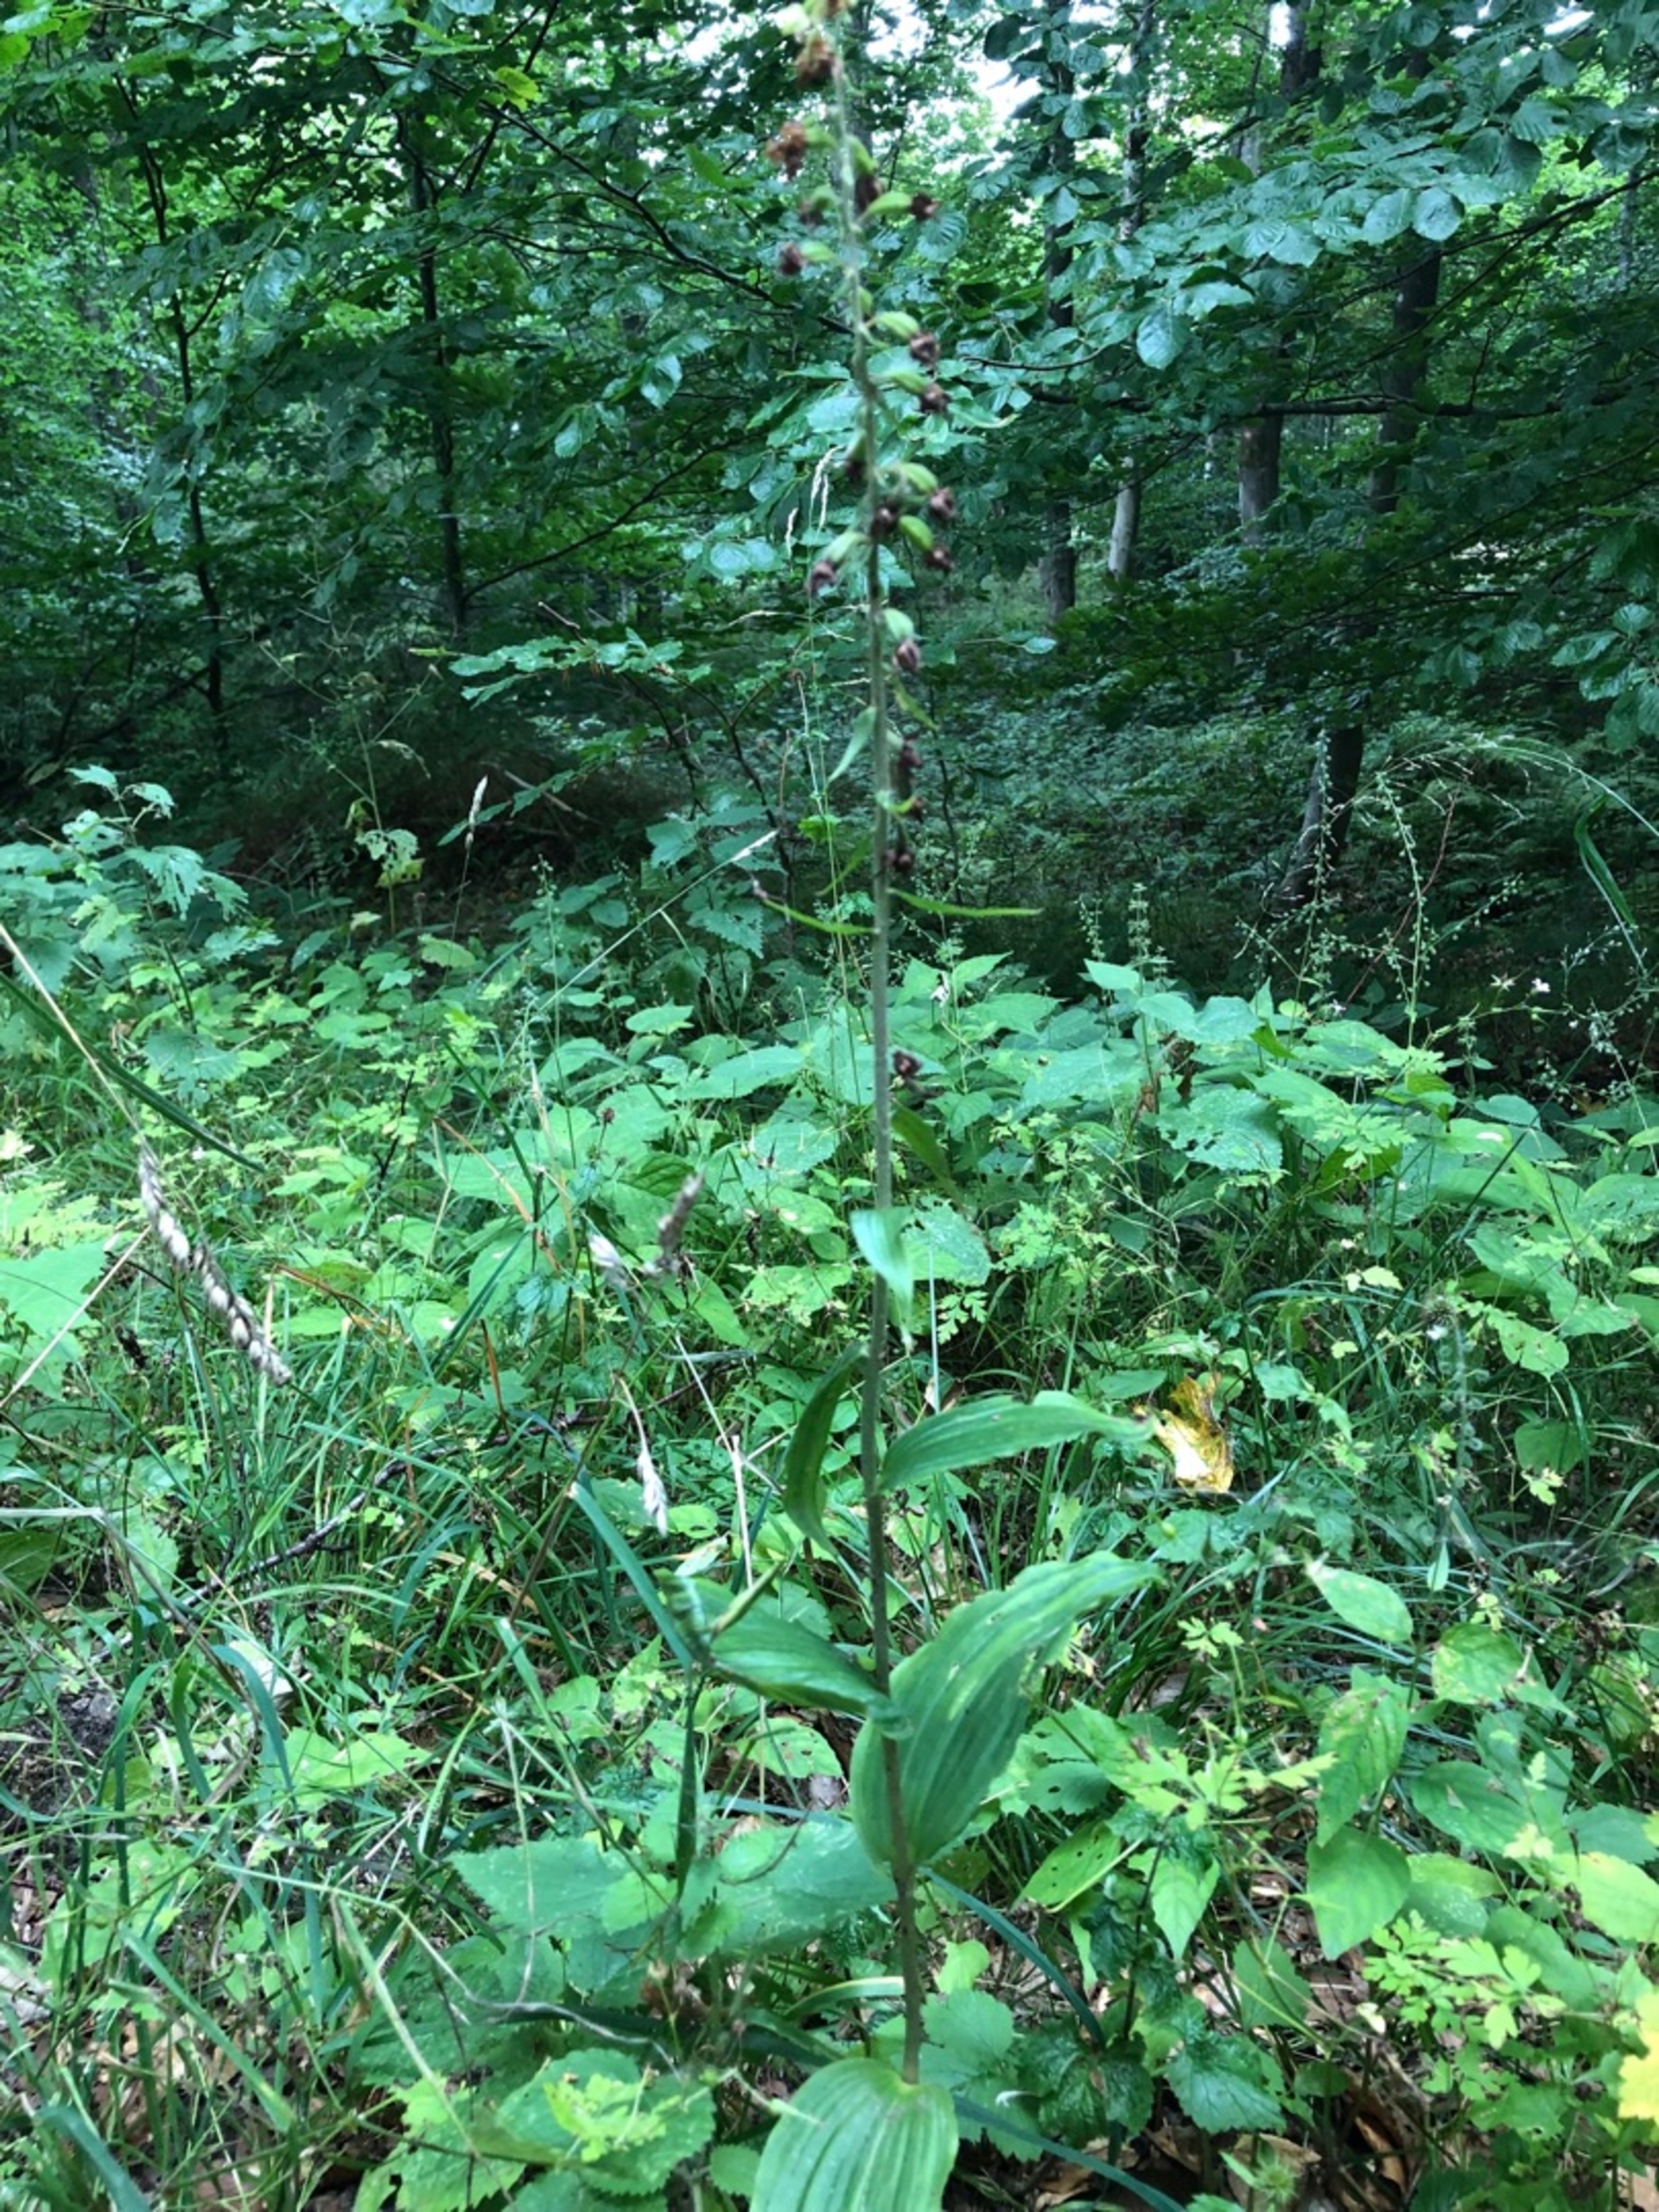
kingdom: Plantae
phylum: Tracheophyta
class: Liliopsida
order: Asparagales
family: Orchidaceae
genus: Epipactis
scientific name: Epipactis helleborine
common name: Skov-hullæbe
